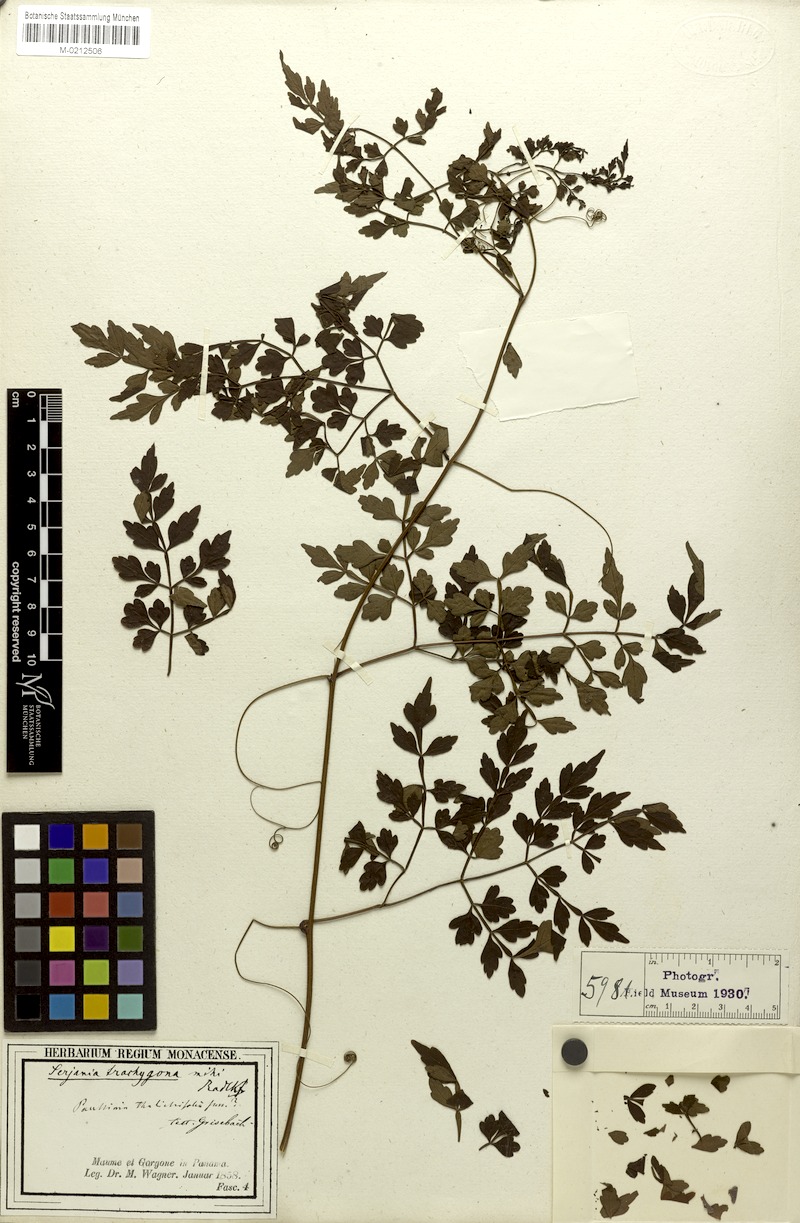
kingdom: Plantae
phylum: Tracheophyta
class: Magnoliopsida
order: Sapindales
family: Sapindaceae
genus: Serjania
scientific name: Serjania trachygona
